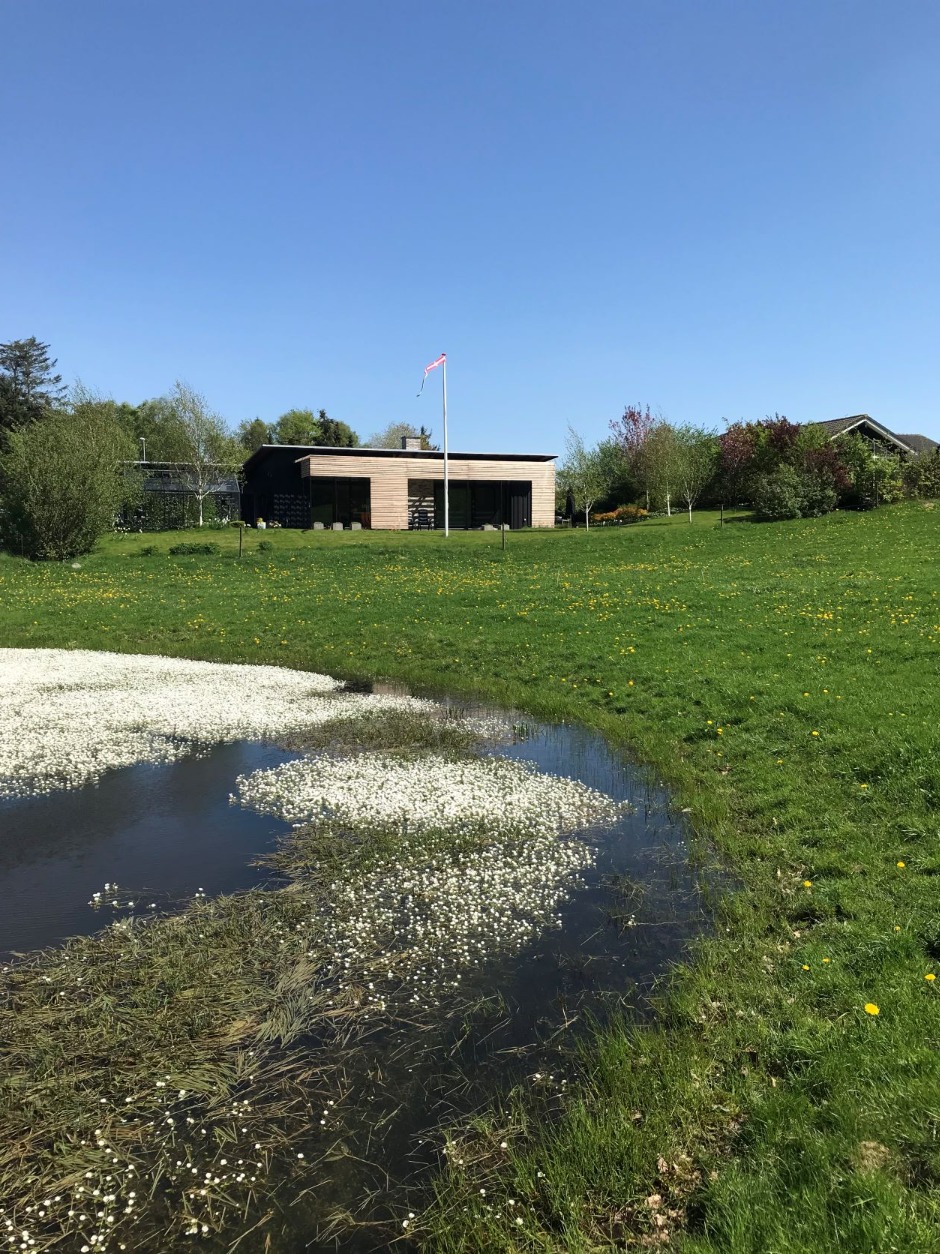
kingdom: Plantae
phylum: Tracheophyta
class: Magnoliopsida
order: Ranunculales
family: Ranunculaceae
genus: Ranunculus
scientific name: Ranunculus
